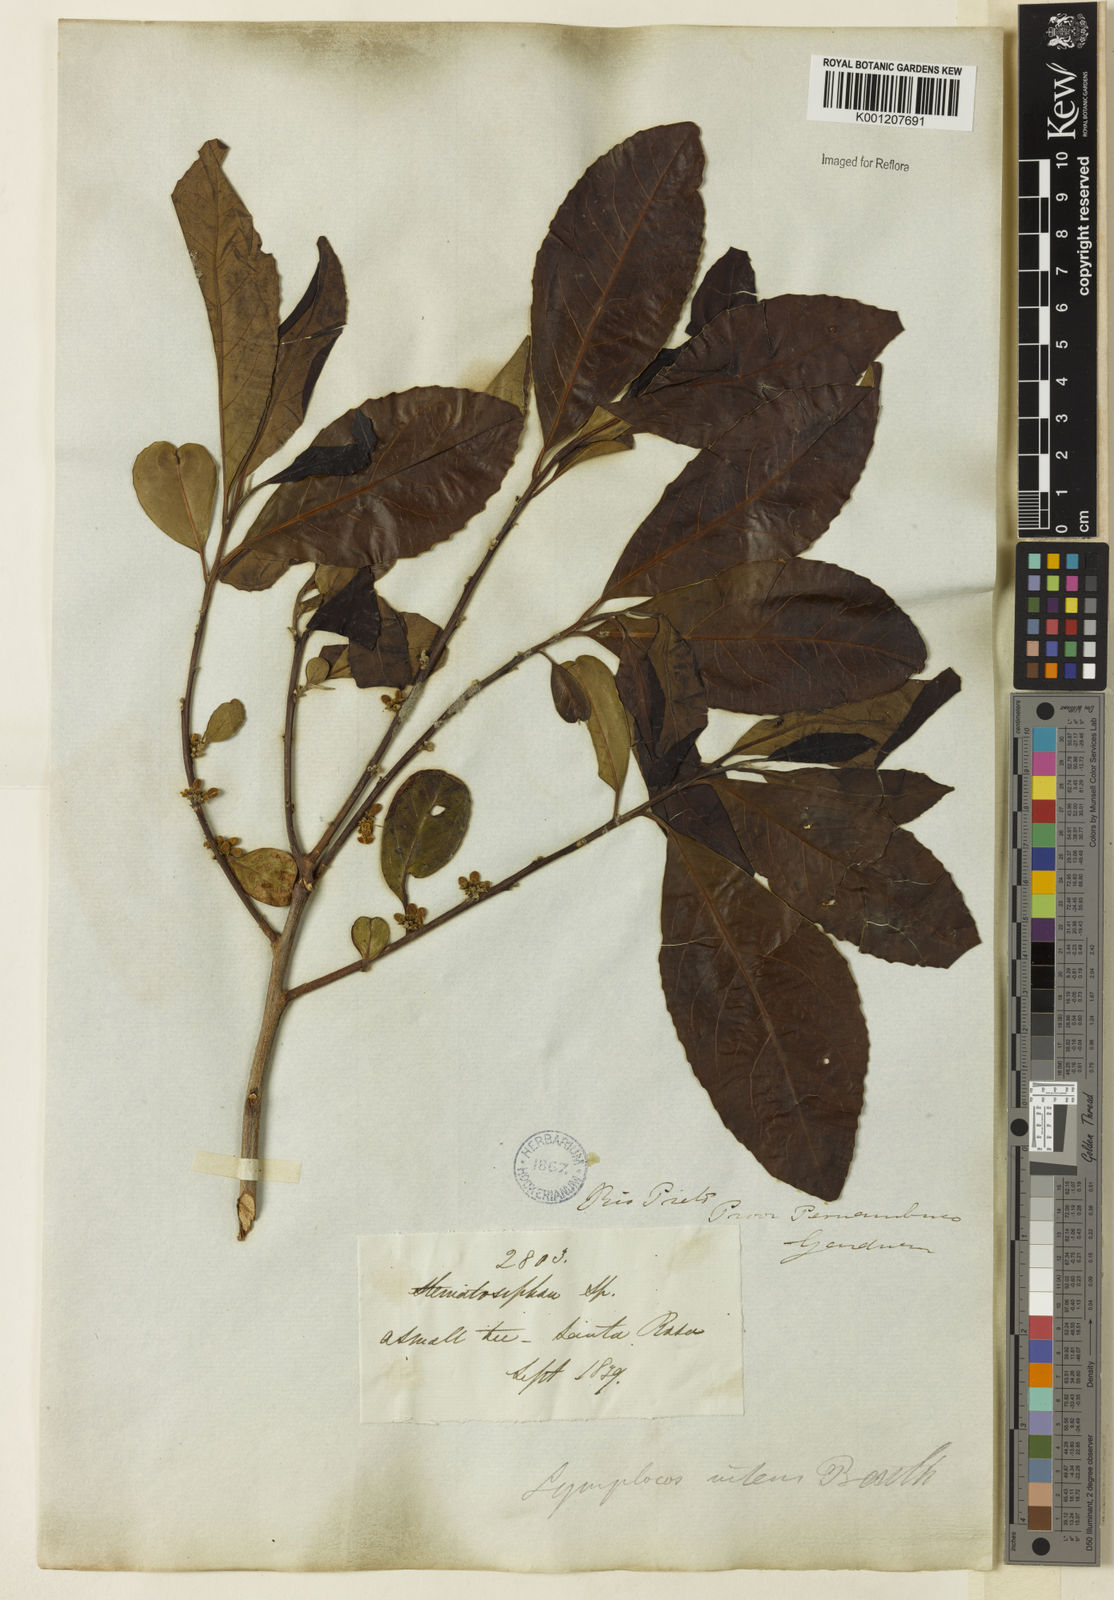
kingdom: Plantae
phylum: Tracheophyta
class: Magnoliopsida
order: Ericales
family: Symplocaceae
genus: Symplocos
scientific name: Symplocos nitens
